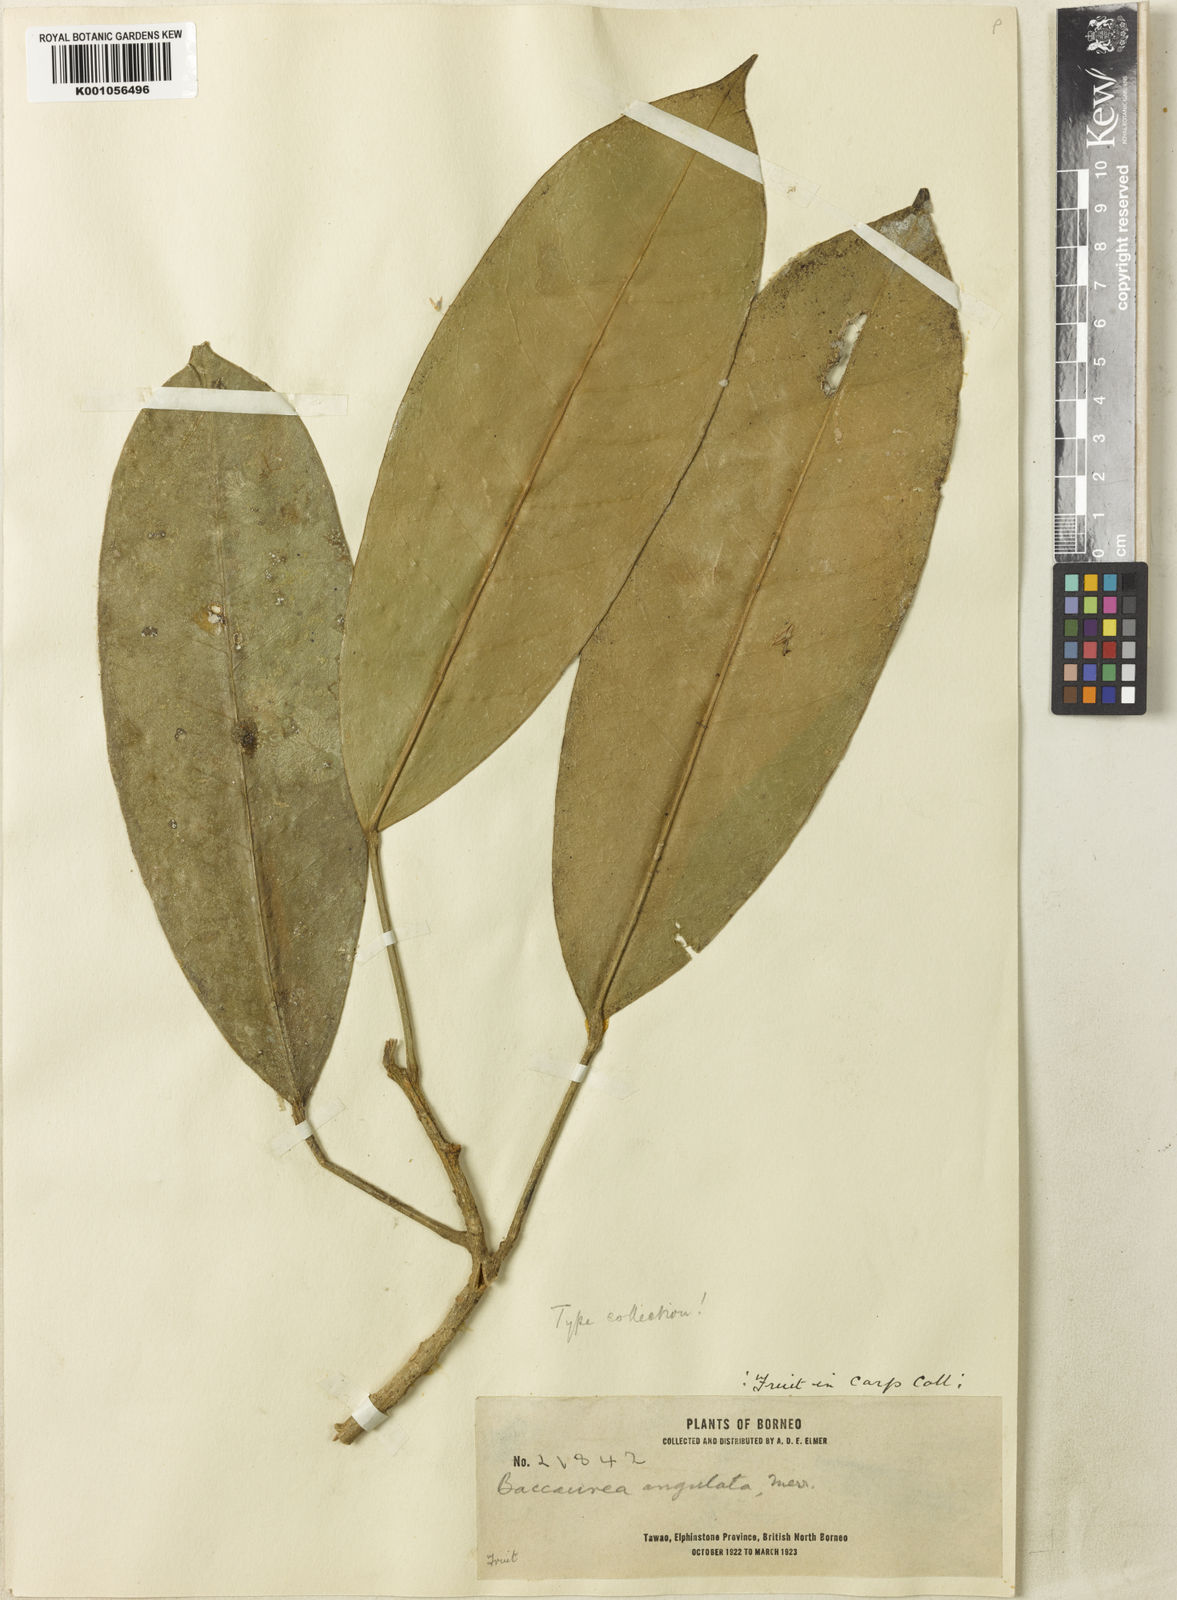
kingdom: Plantae
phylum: Tracheophyta
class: Magnoliopsida
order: Malpighiales
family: Phyllanthaceae
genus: Baccaurea
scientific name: Baccaurea angulata
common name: Red angle tampoi
